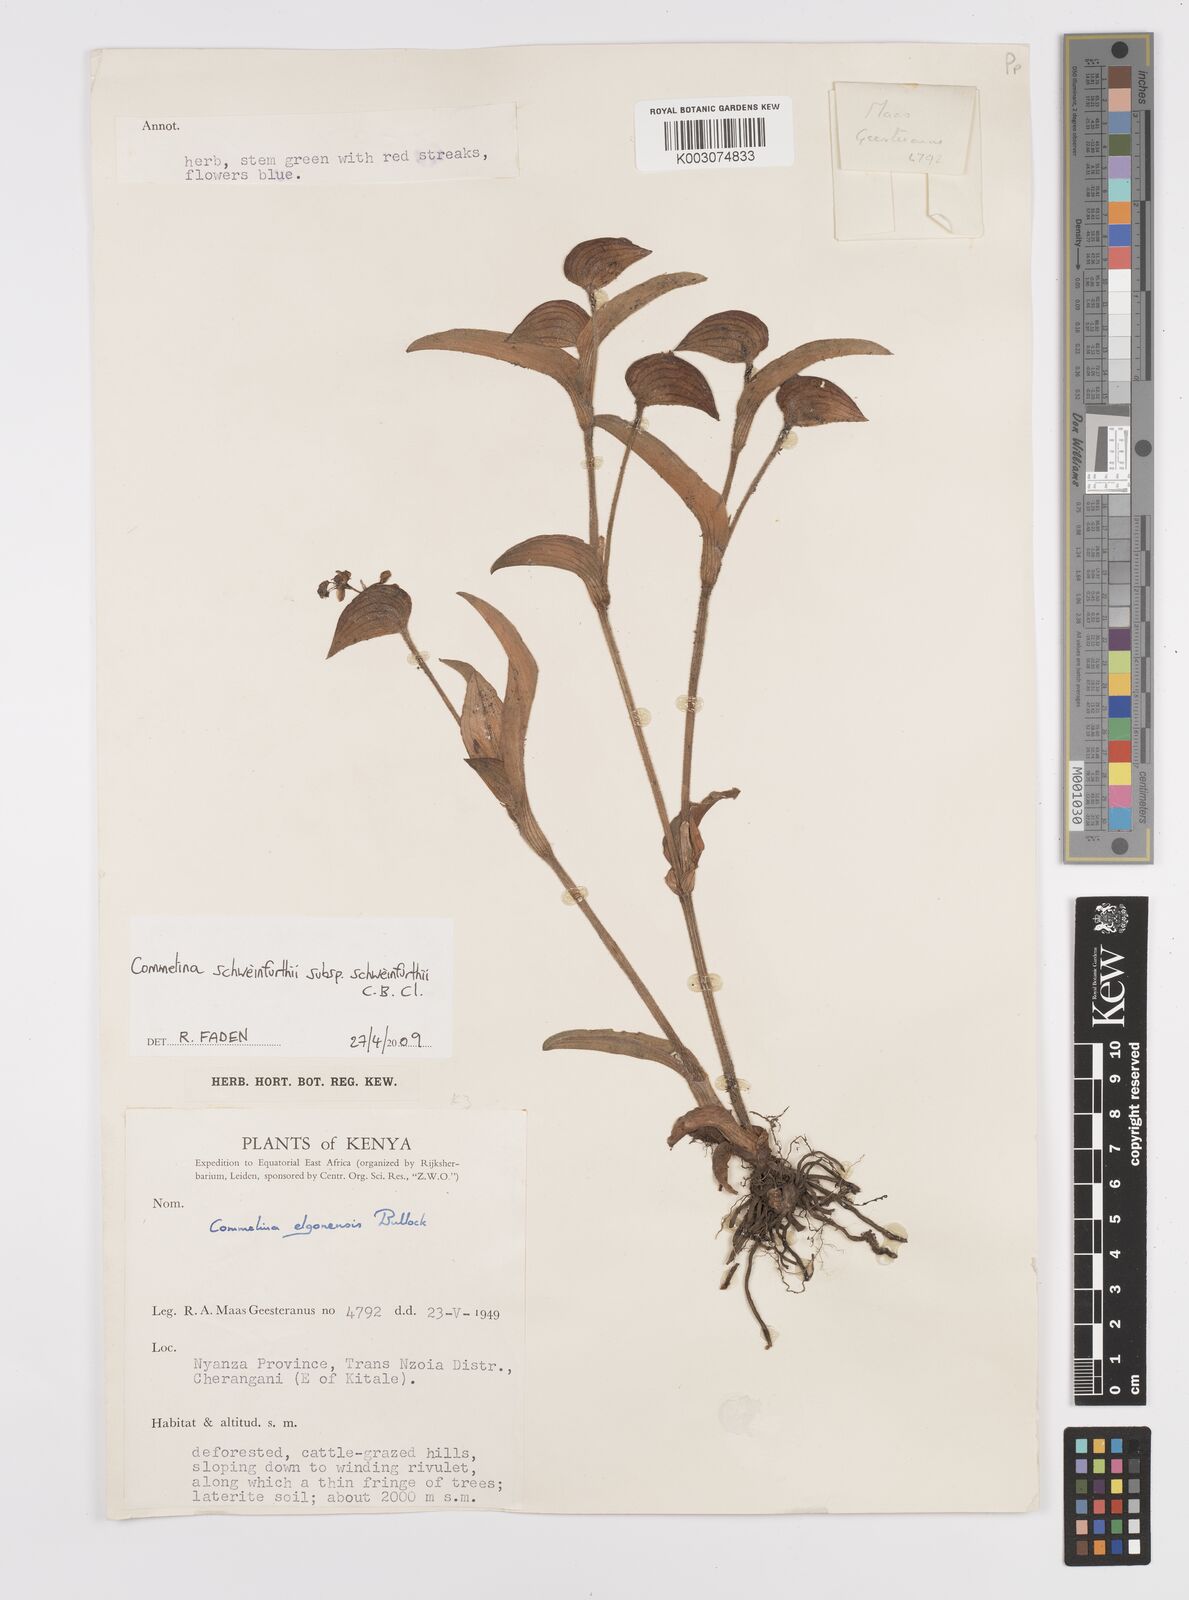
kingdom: Plantae
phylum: Tracheophyta
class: Liliopsida
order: Commelinales
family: Commelinaceae
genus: Commelina
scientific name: Commelina schweinfurthii
